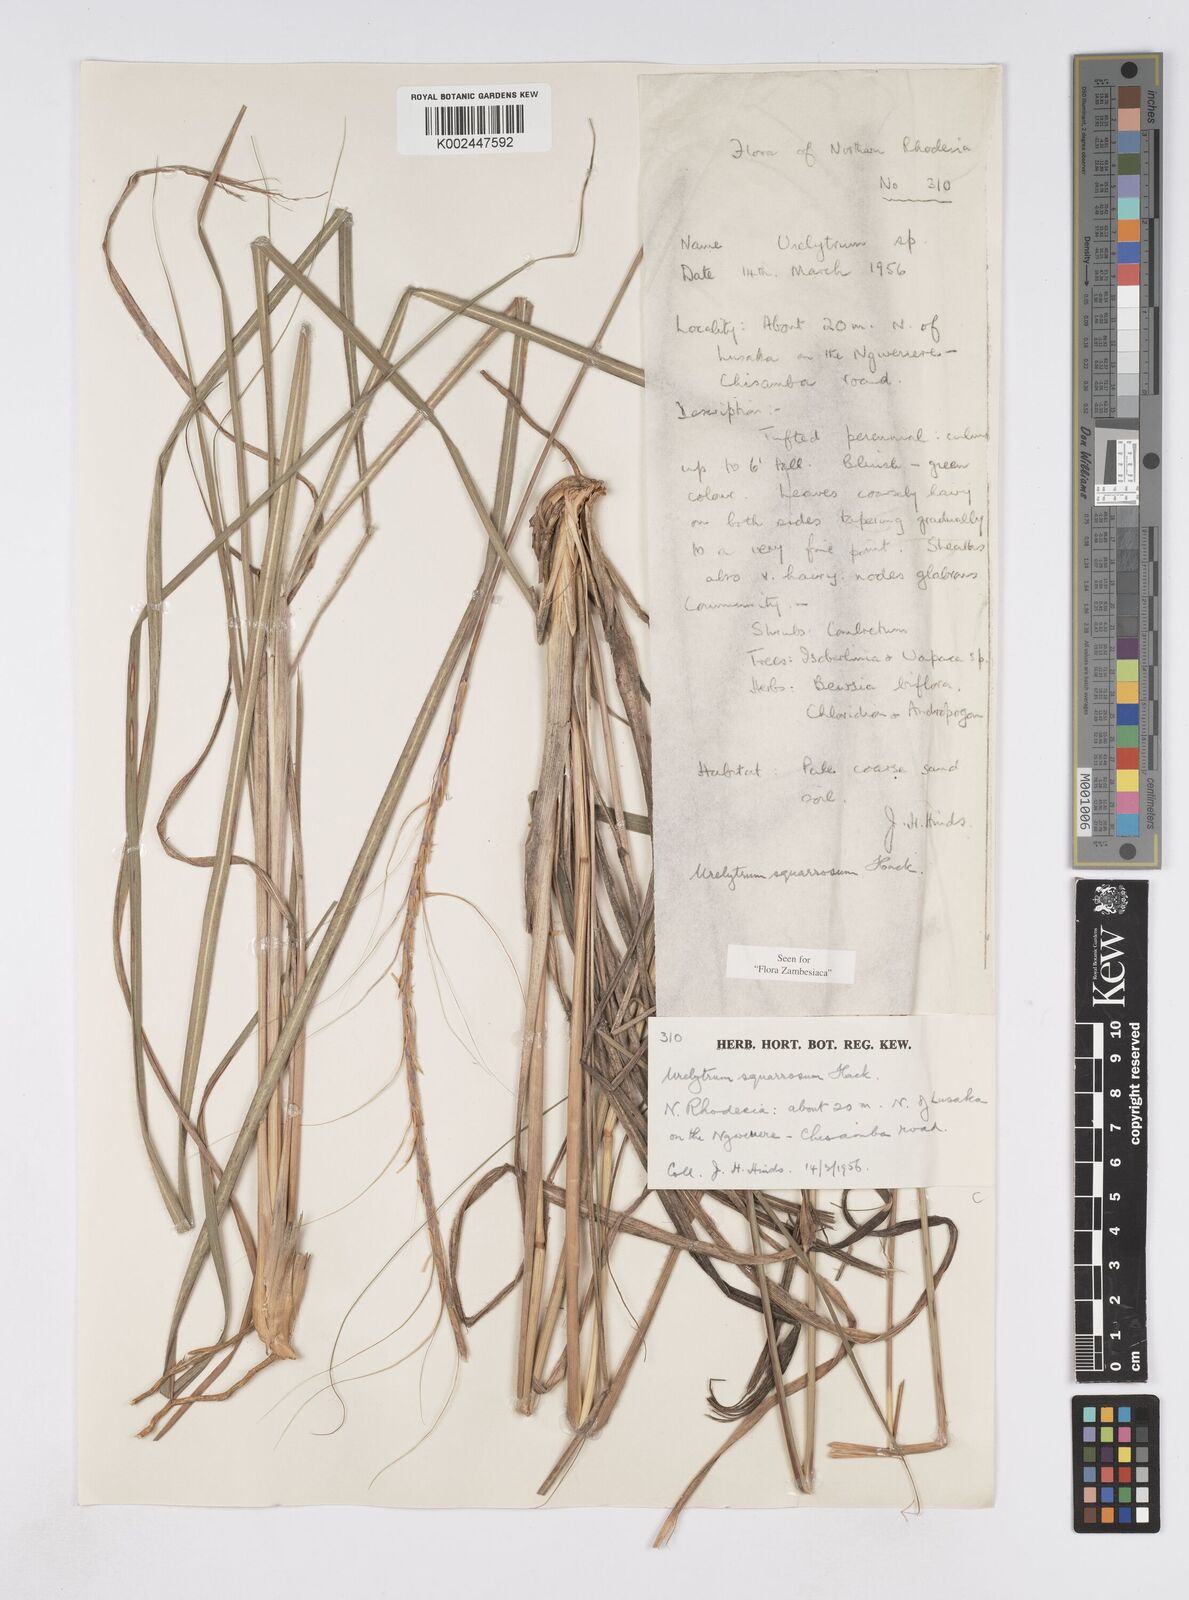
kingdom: Plantae
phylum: Tracheophyta
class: Liliopsida
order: Poales
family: Poaceae
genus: Urelytrum
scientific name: Urelytrum agropyroides
